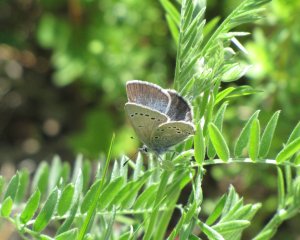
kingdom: Animalia
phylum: Arthropoda
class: Insecta
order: Lepidoptera
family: Lycaenidae
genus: Glaucopsyche
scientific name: Glaucopsyche lygdamus
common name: Silvery Blue
